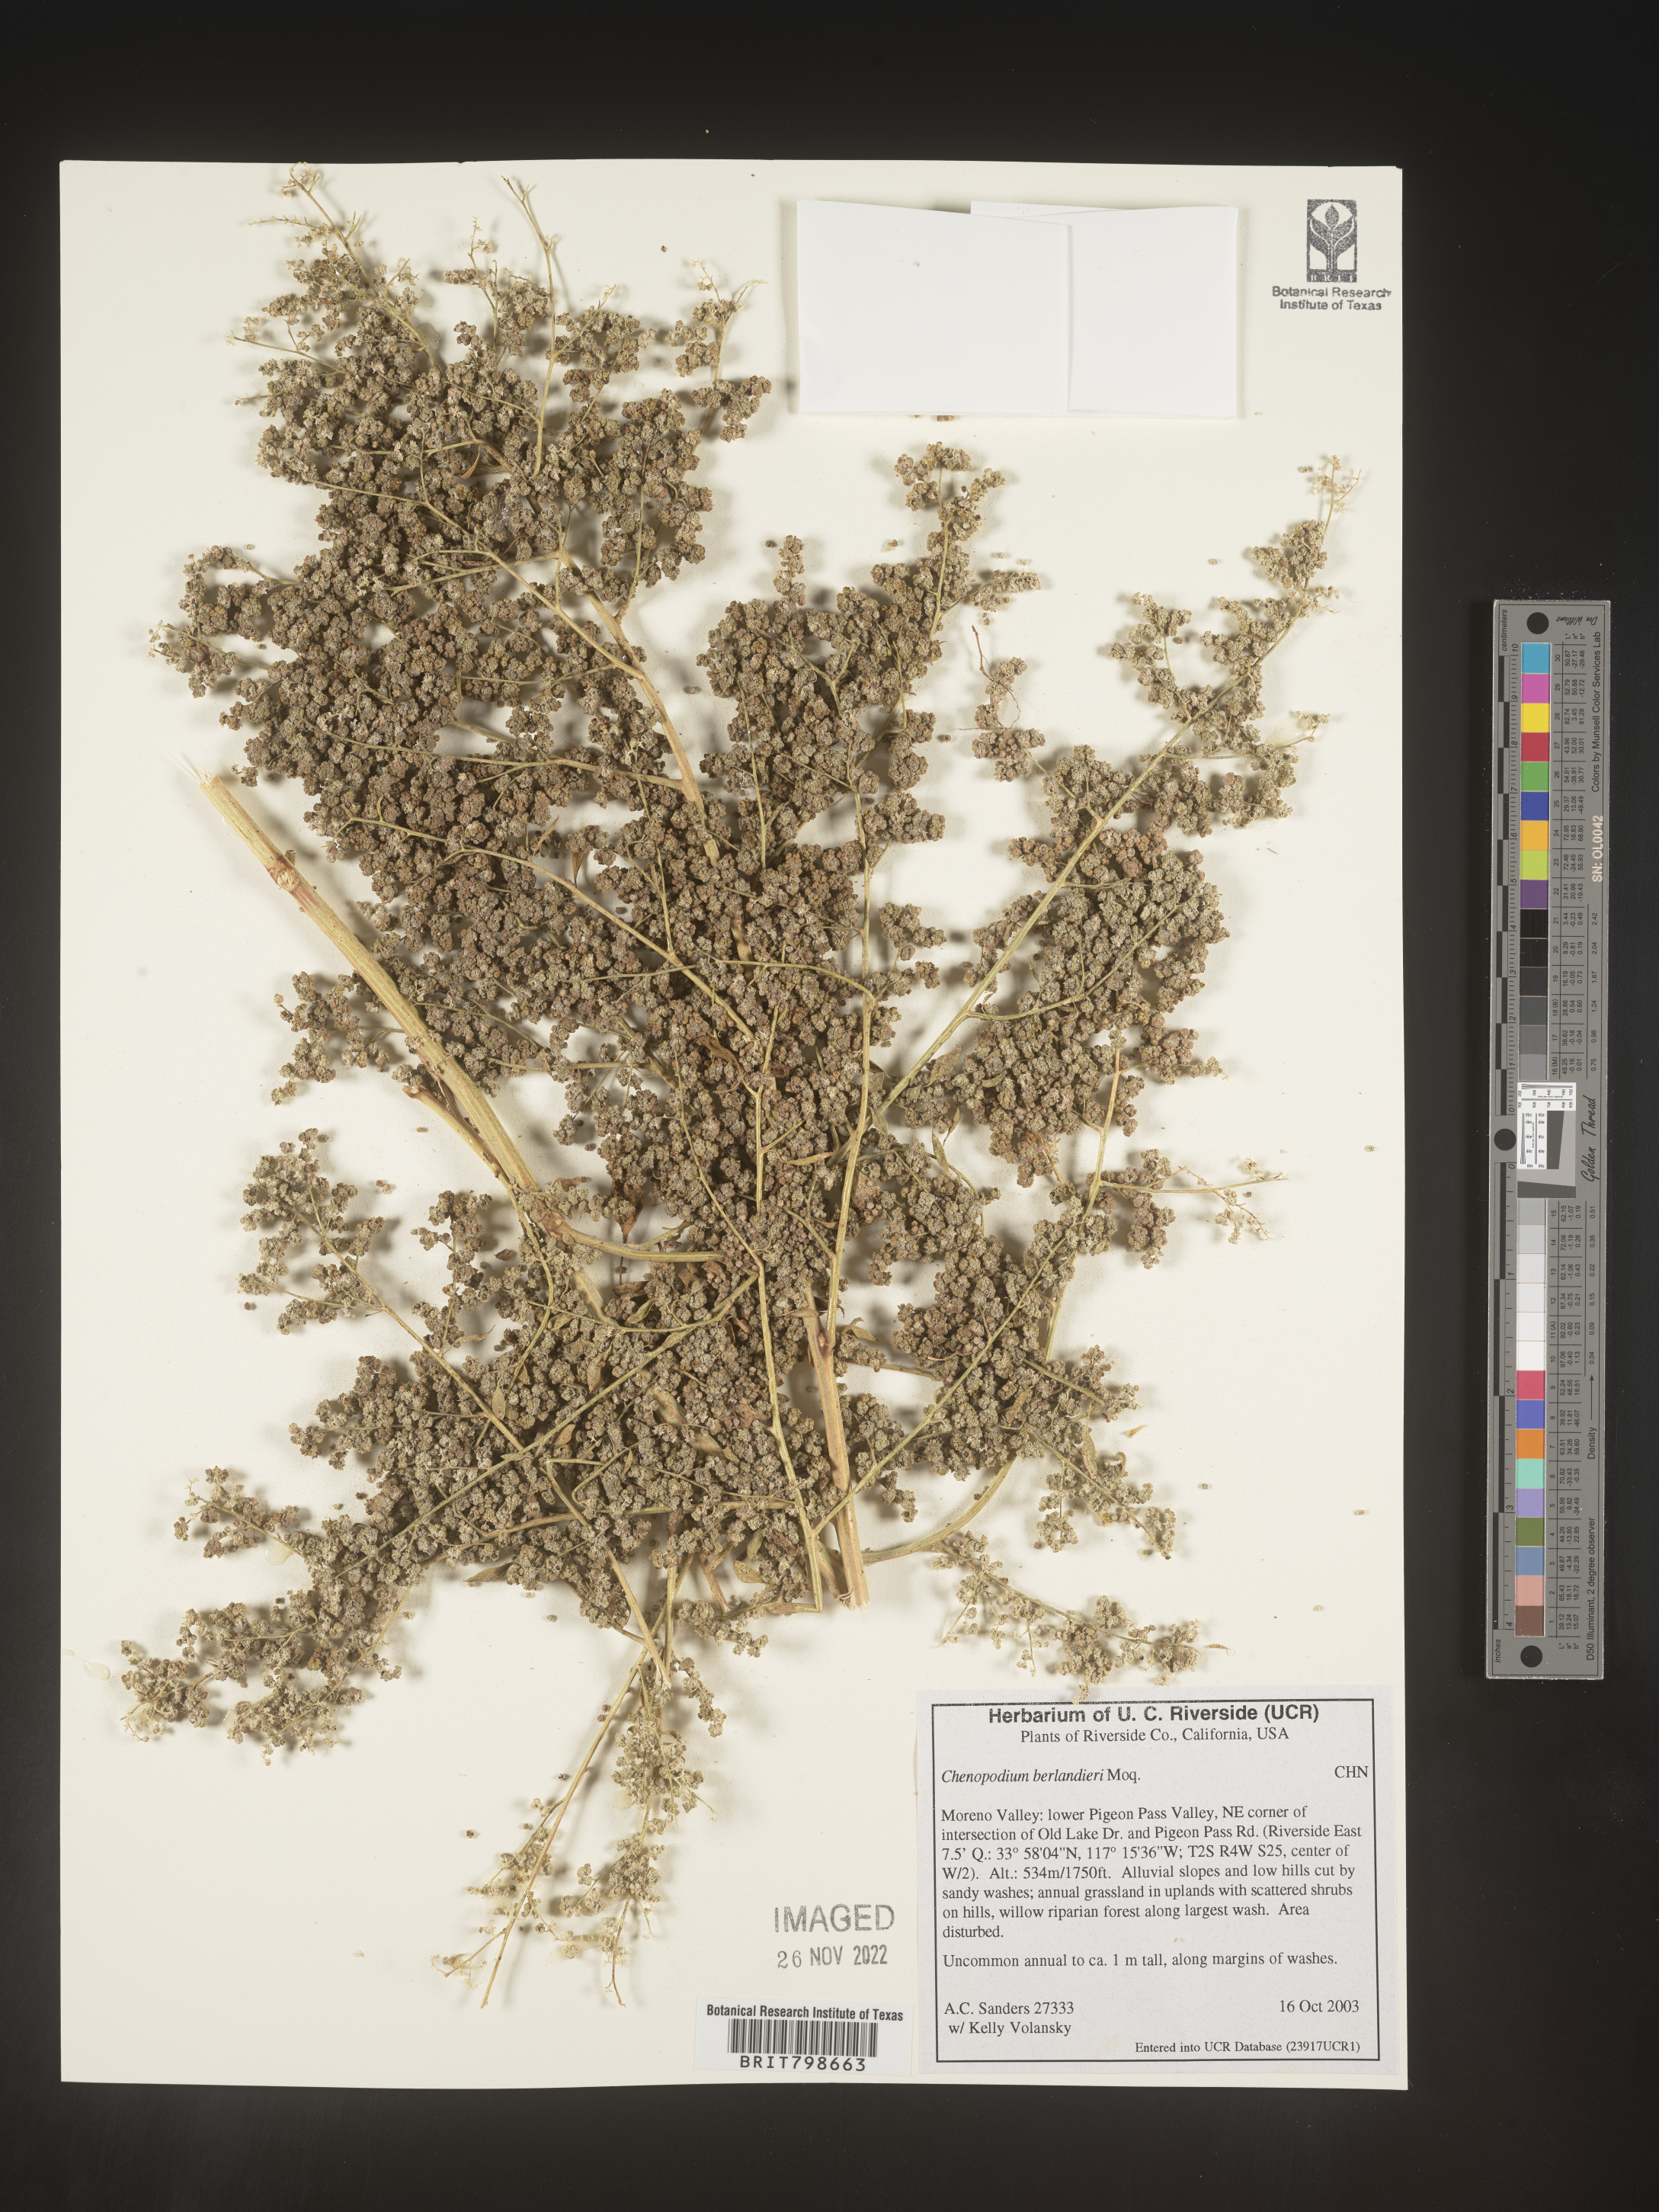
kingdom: Plantae
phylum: Tracheophyta
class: Magnoliopsida
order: Caryophyllales
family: Amaranthaceae
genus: Chenopodium
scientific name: Chenopodium berlandieri
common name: Pit-seed goosefoot
